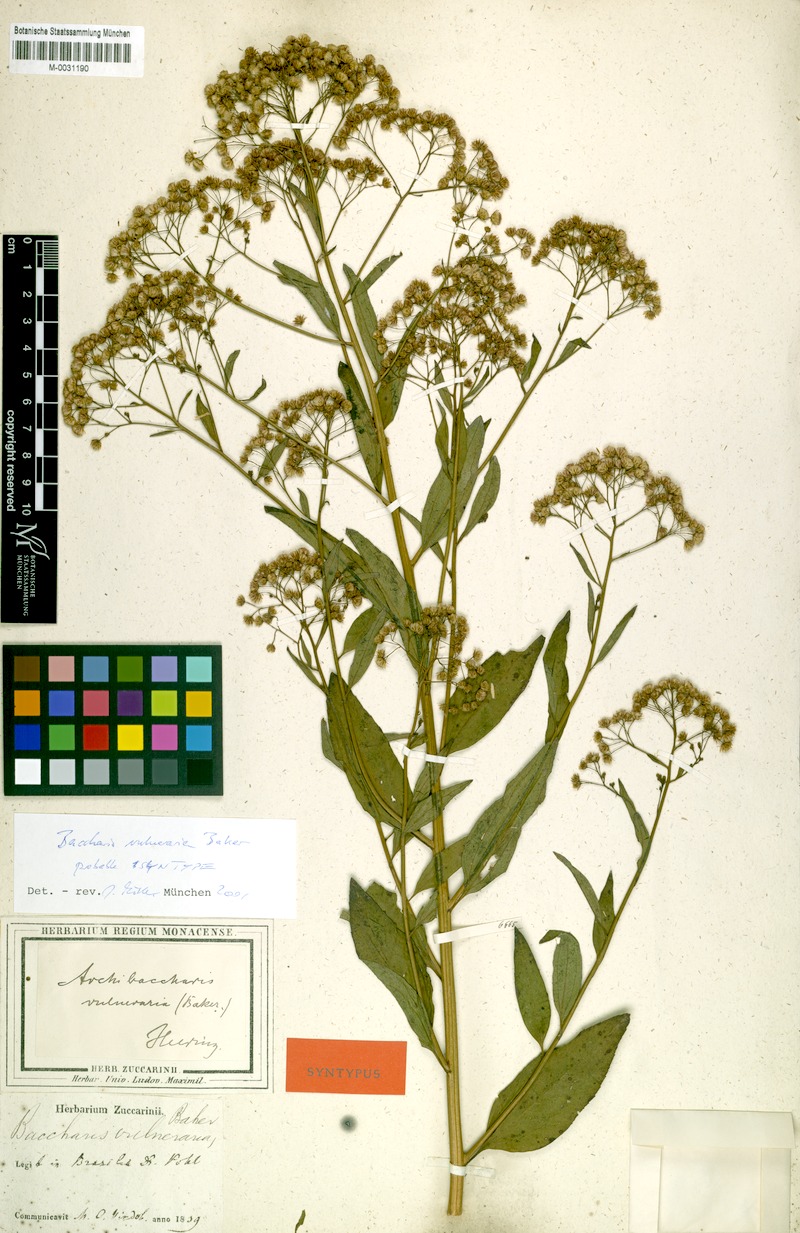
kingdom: Plantae
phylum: Tracheophyta
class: Magnoliopsida
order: Asterales
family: Asteraceae
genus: Archibaccharis
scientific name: Archibaccharis vulneraria
